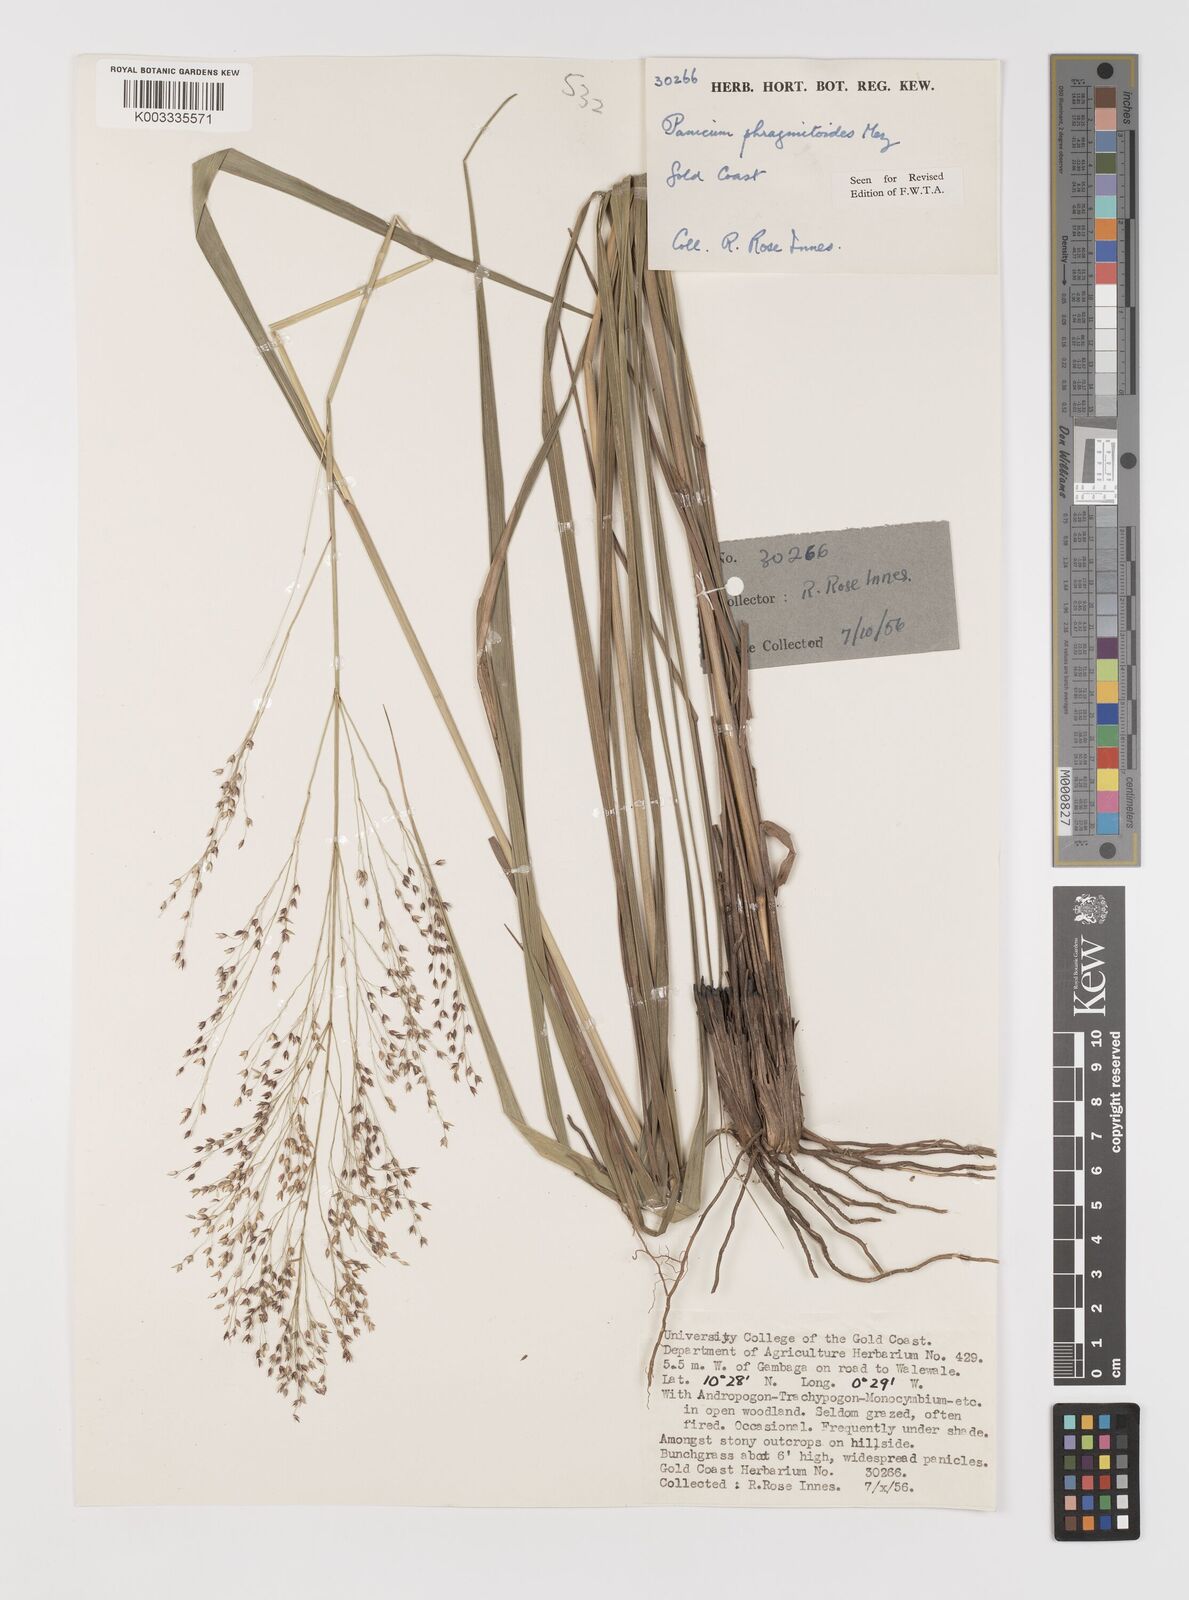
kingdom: Plantae
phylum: Tracheophyta
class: Liliopsida
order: Poales
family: Poaceae
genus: Panicum
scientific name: Panicum phragmitoides
